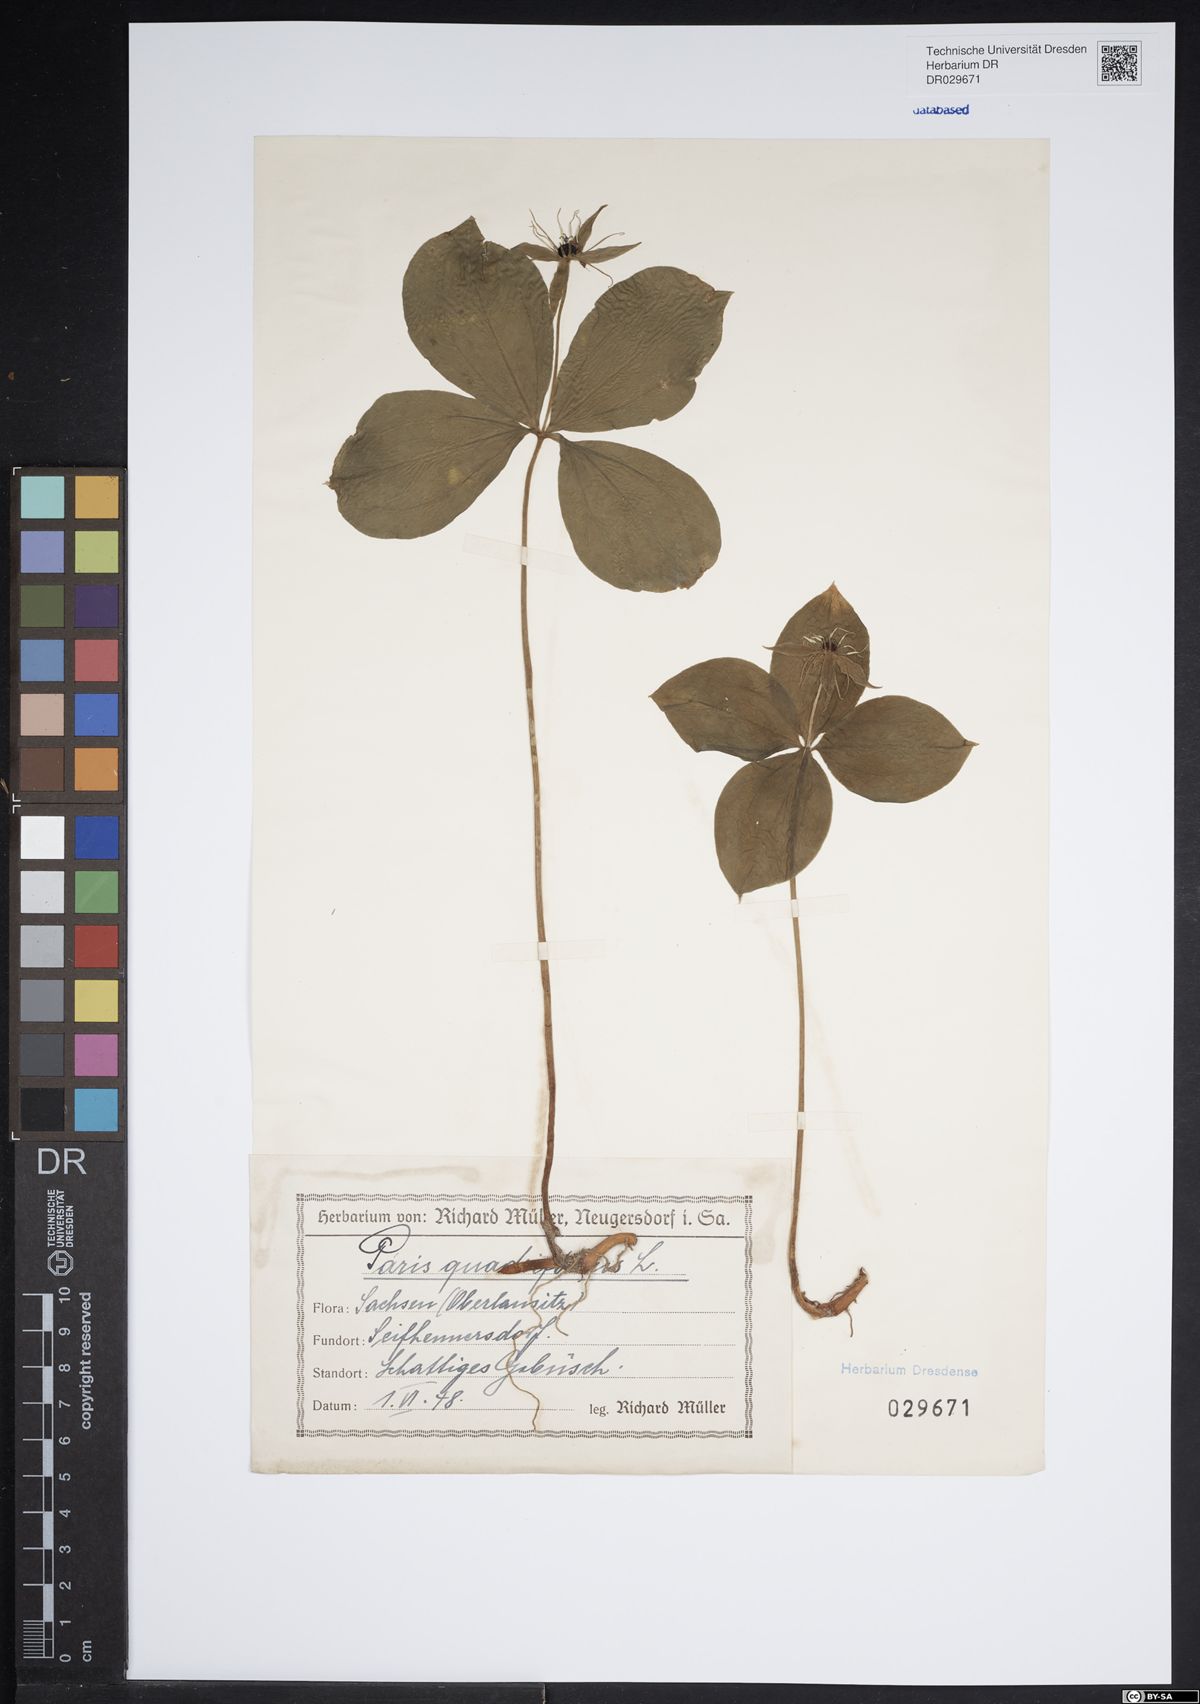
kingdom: Plantae
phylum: Tracheophyta
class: Liliopsida
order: Liliales
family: Melanthiaceae
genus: Paris
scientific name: Paris quadrifolia
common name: Herb-paris
